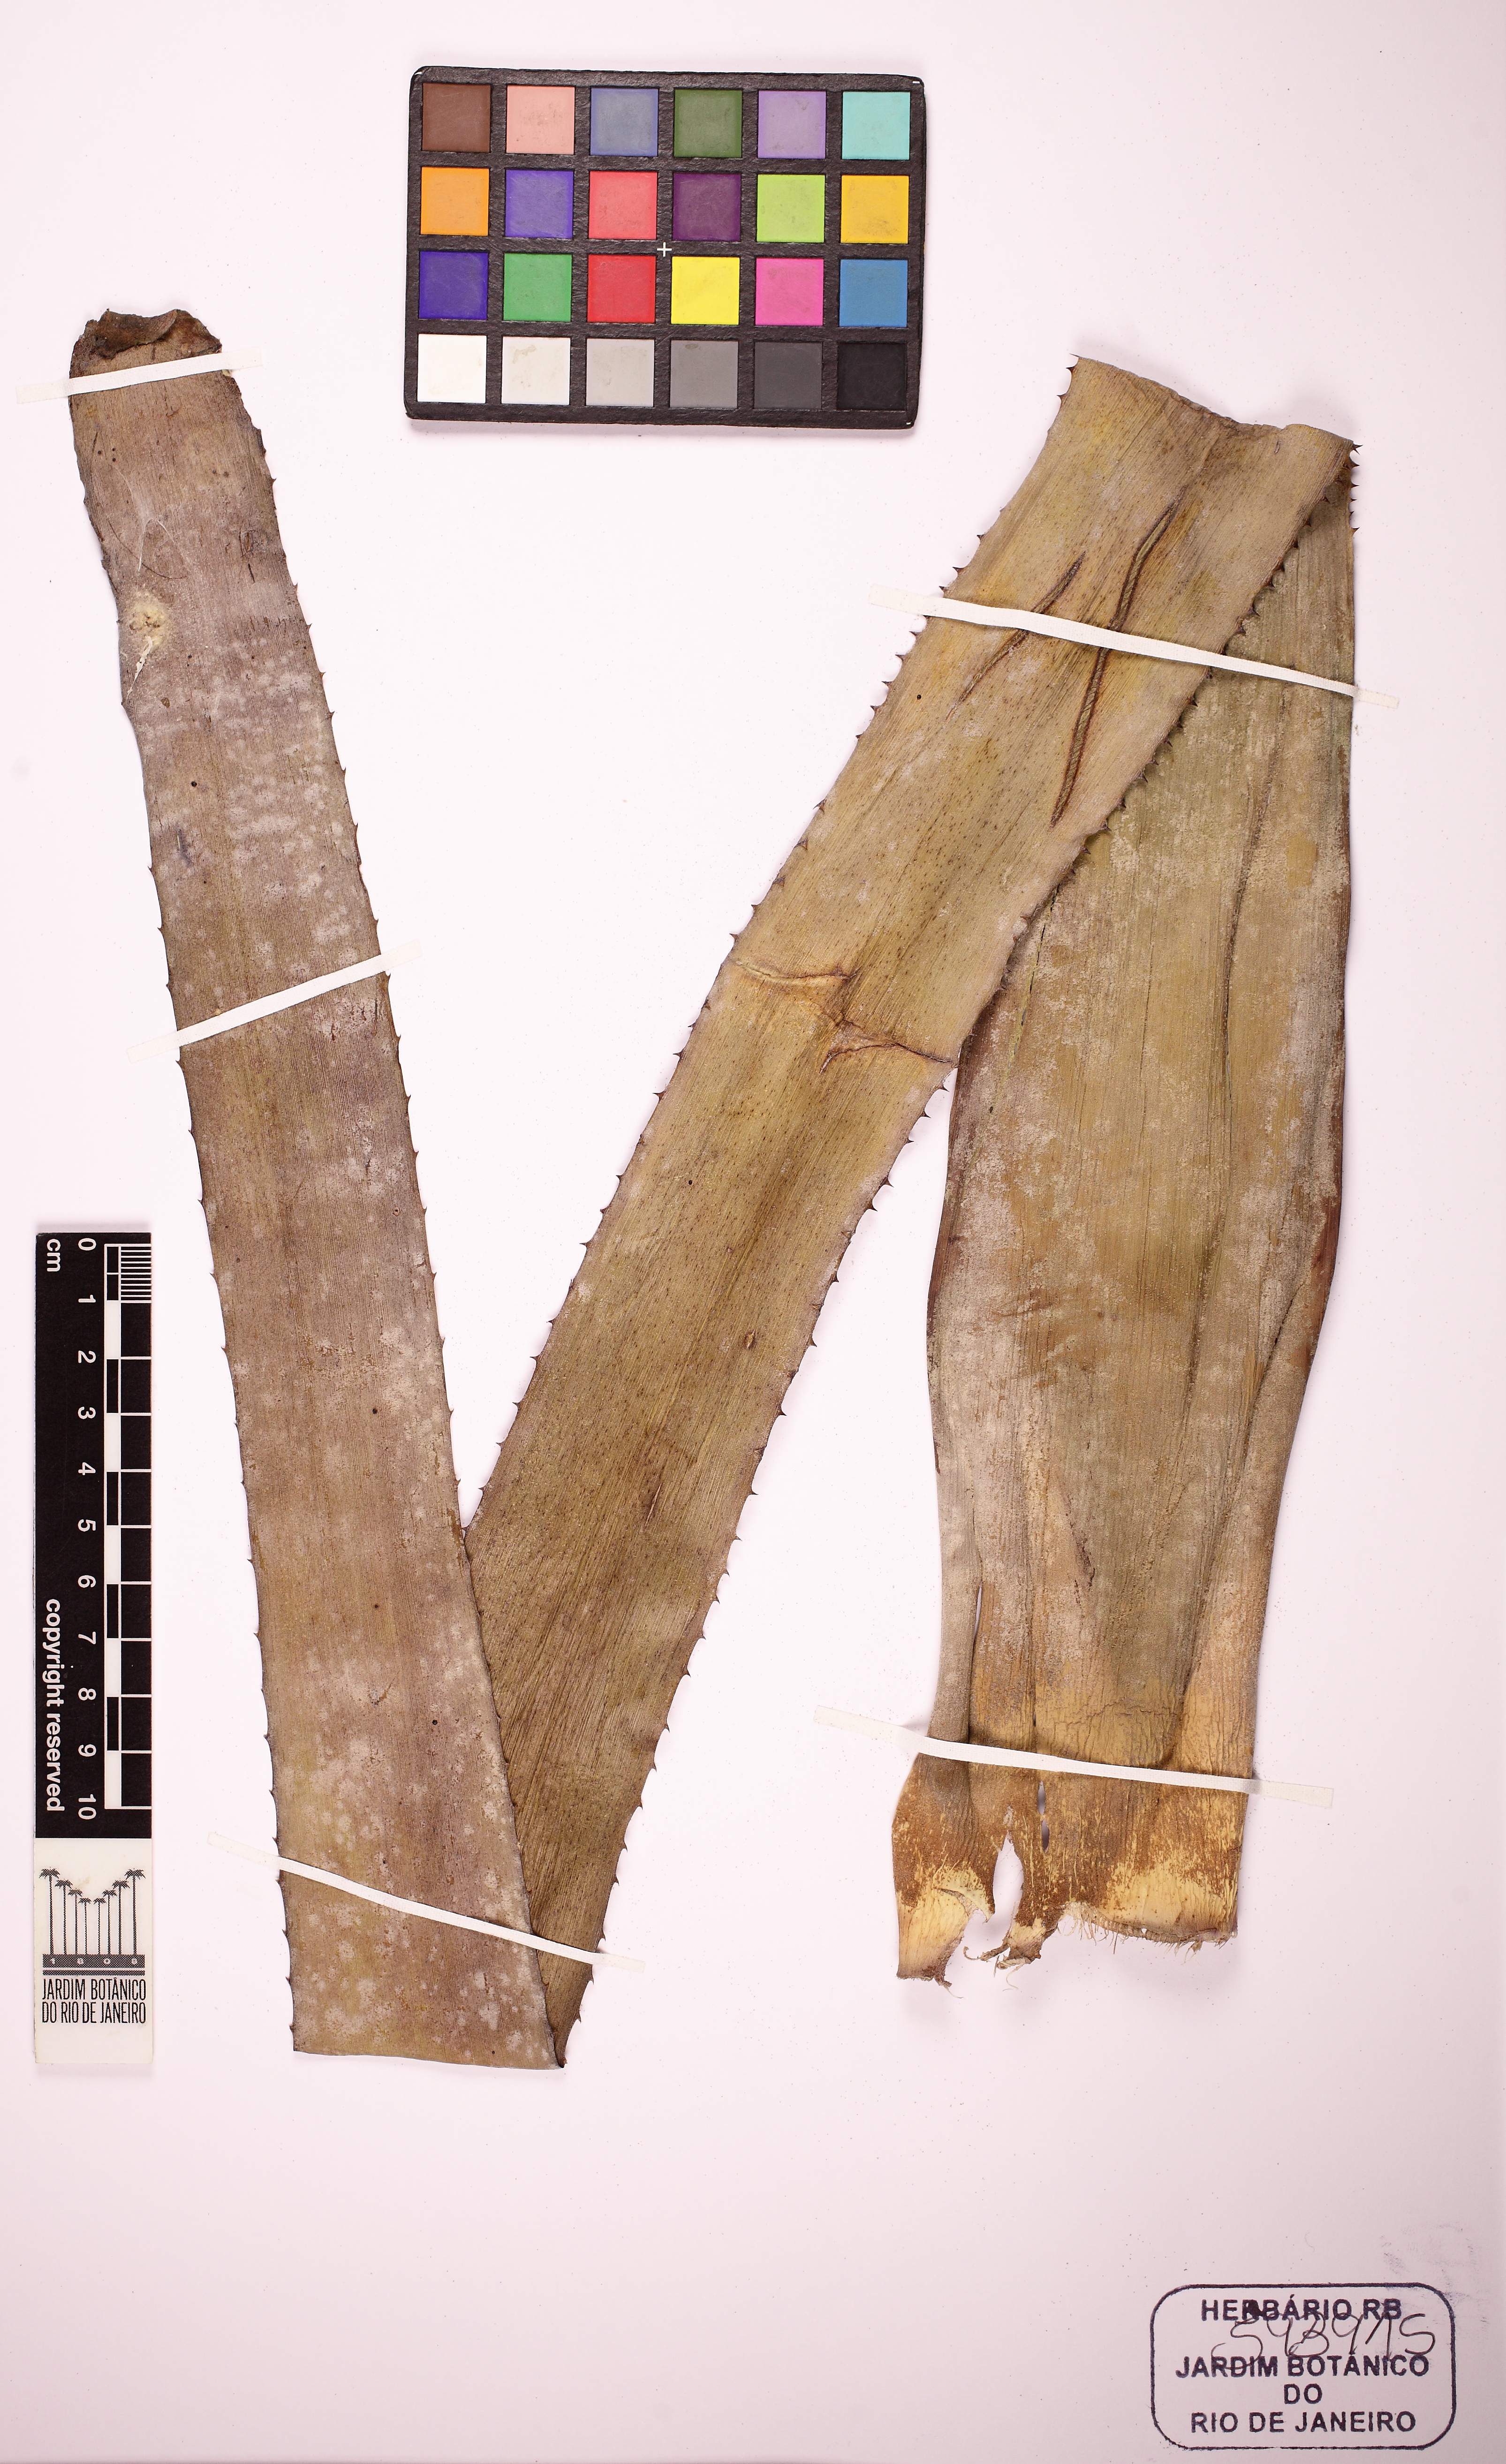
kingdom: Plantae
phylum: Tracheophyta
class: Liliopsida
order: Poales
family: Bromeliaceae
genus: Billbergia
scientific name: Billbergia porteana
